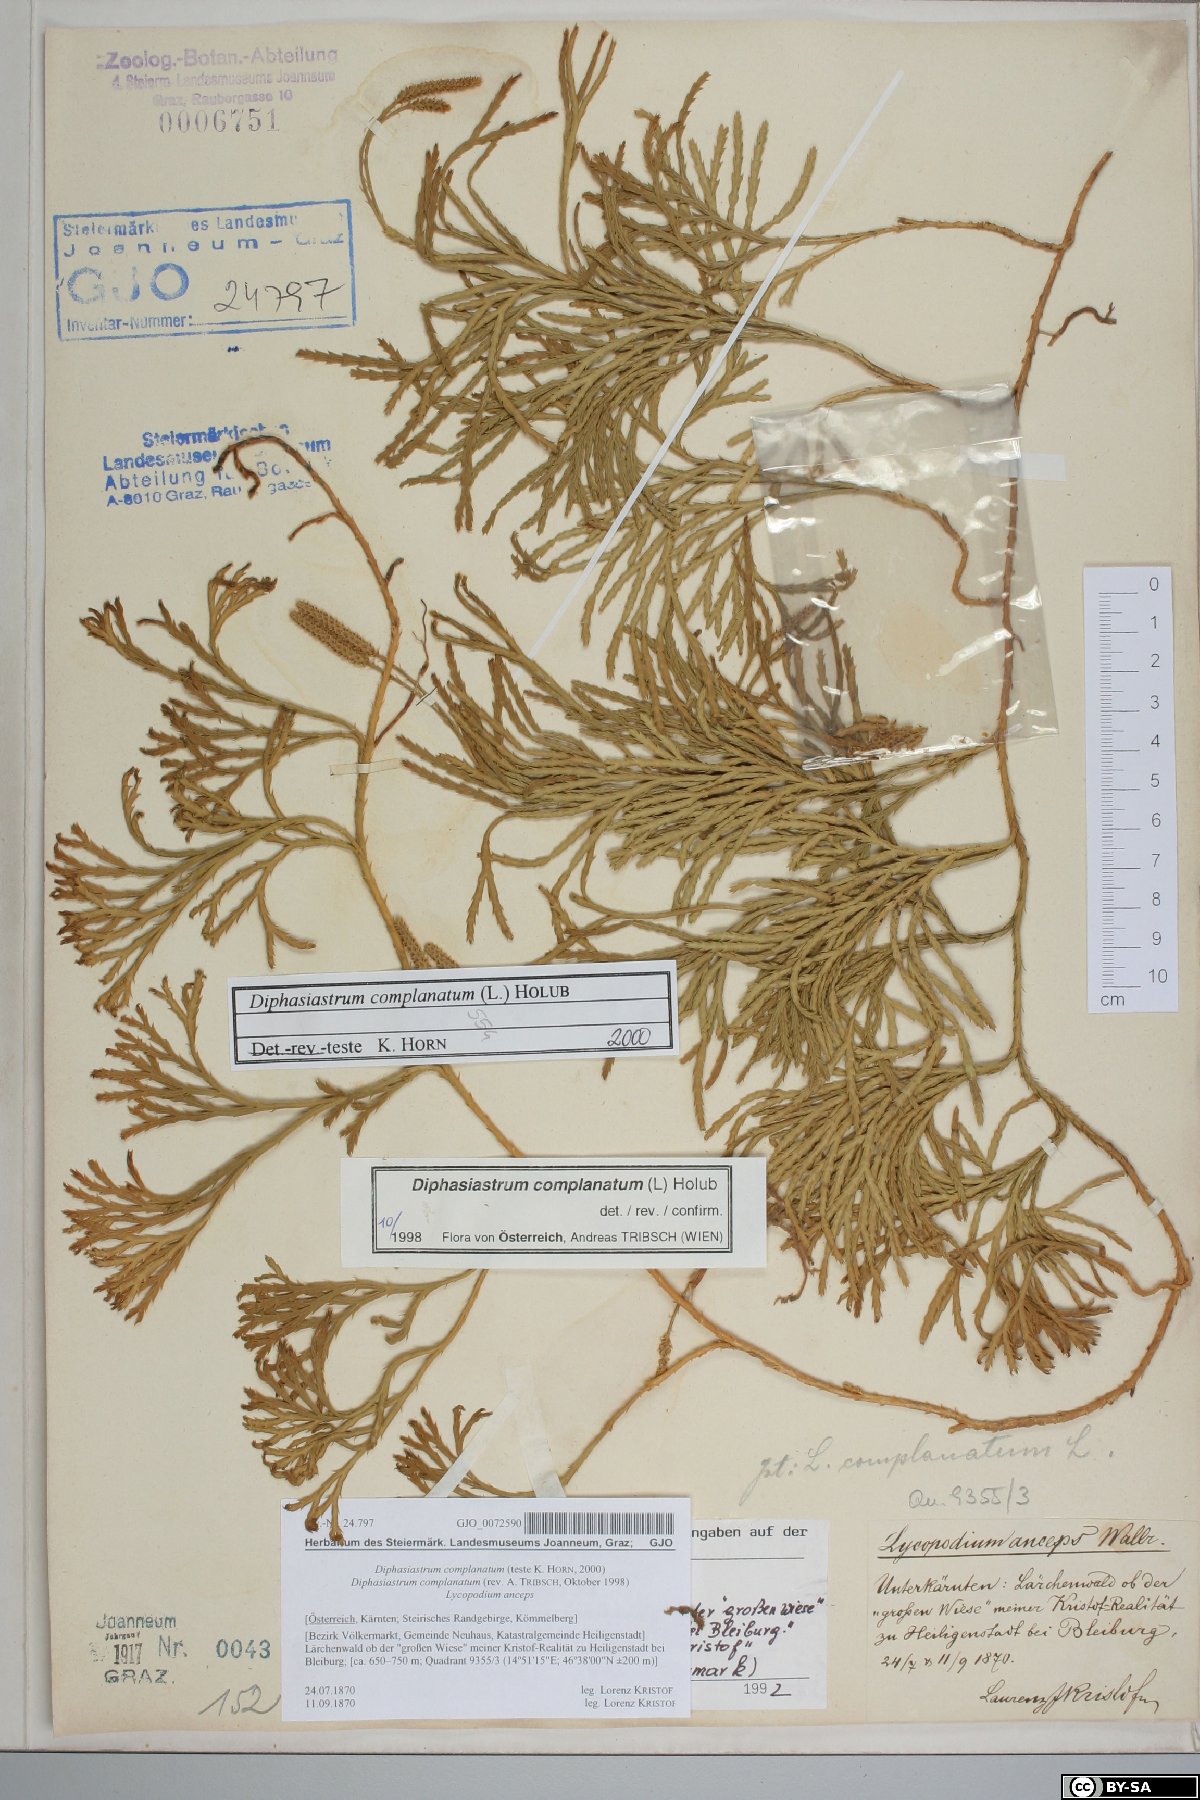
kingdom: Plantae
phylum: Tracheophyta
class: Lycopodiopsida
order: Lycopodiales
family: Lycopodiaceae
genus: Diphasiastrum
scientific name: Diphasiastrum complanatum
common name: Northern running-pine
